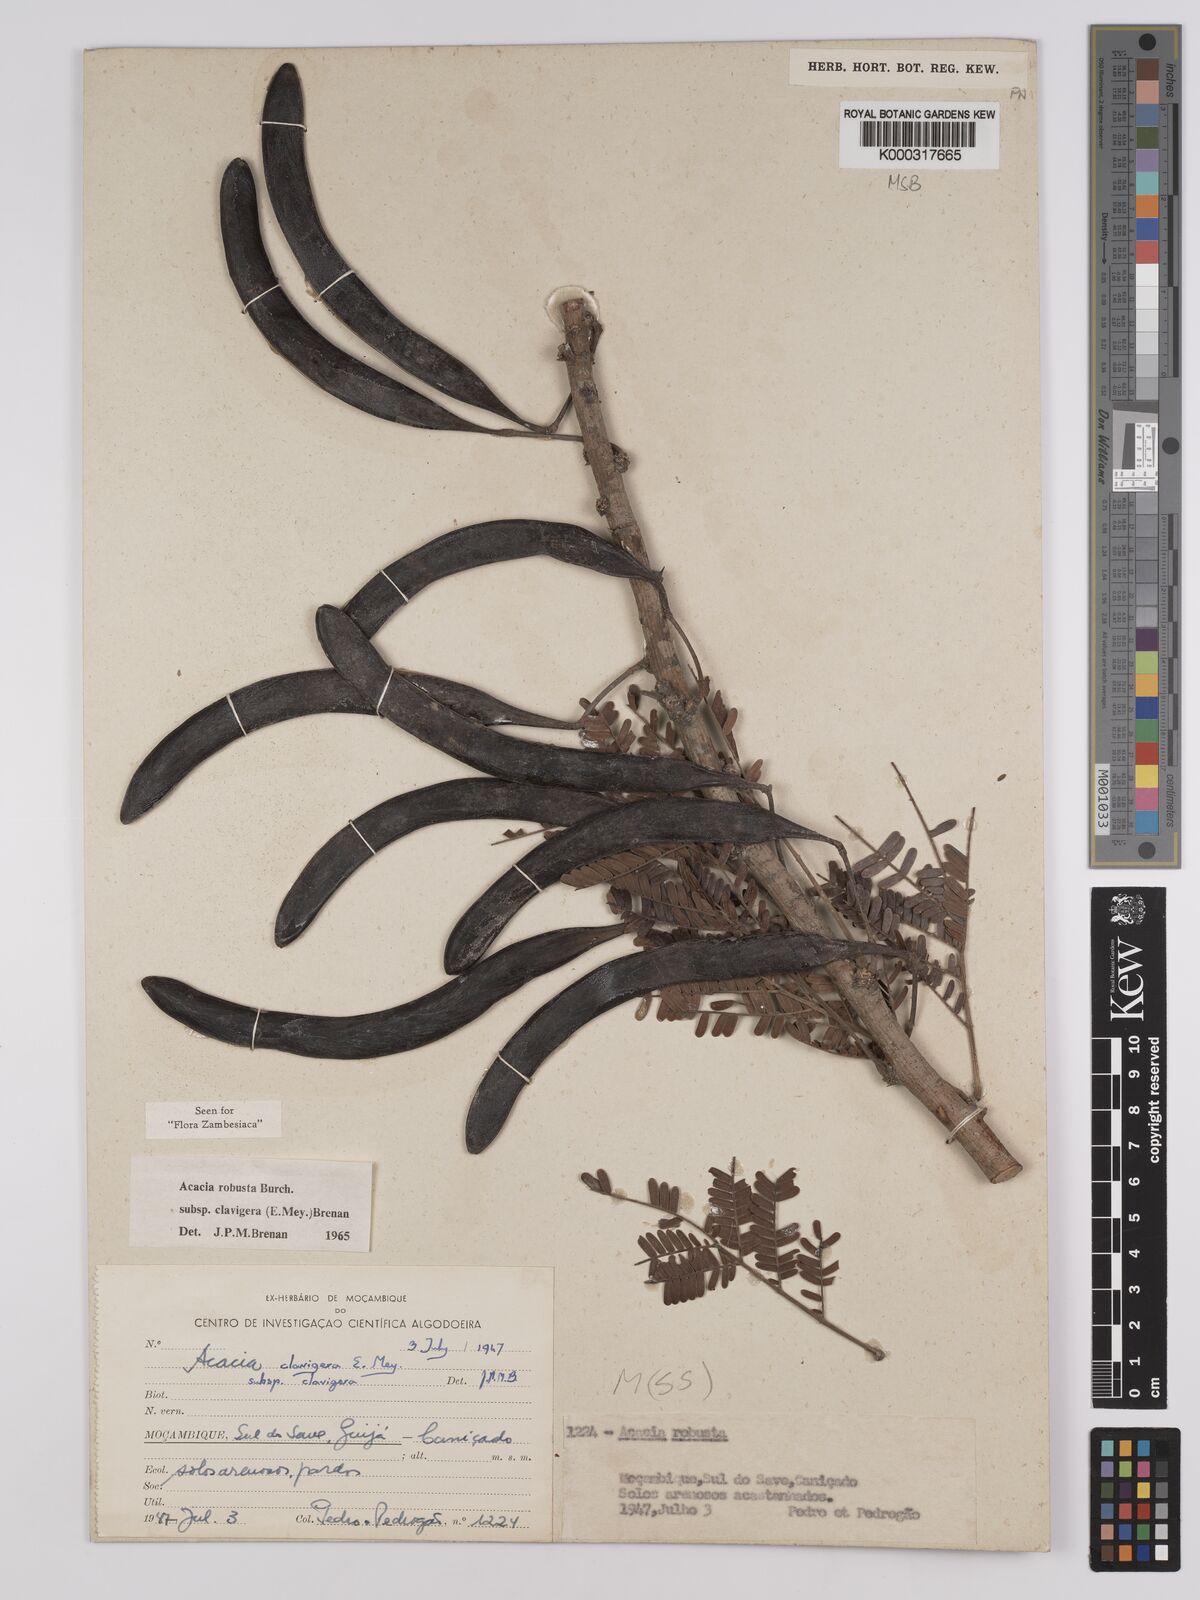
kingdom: Plantae
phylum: Tracheophyta
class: Magnoliopsida
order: Fabales
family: Fabaceae
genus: Vachellia
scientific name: Vachellia robusta
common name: Ankle thorn
